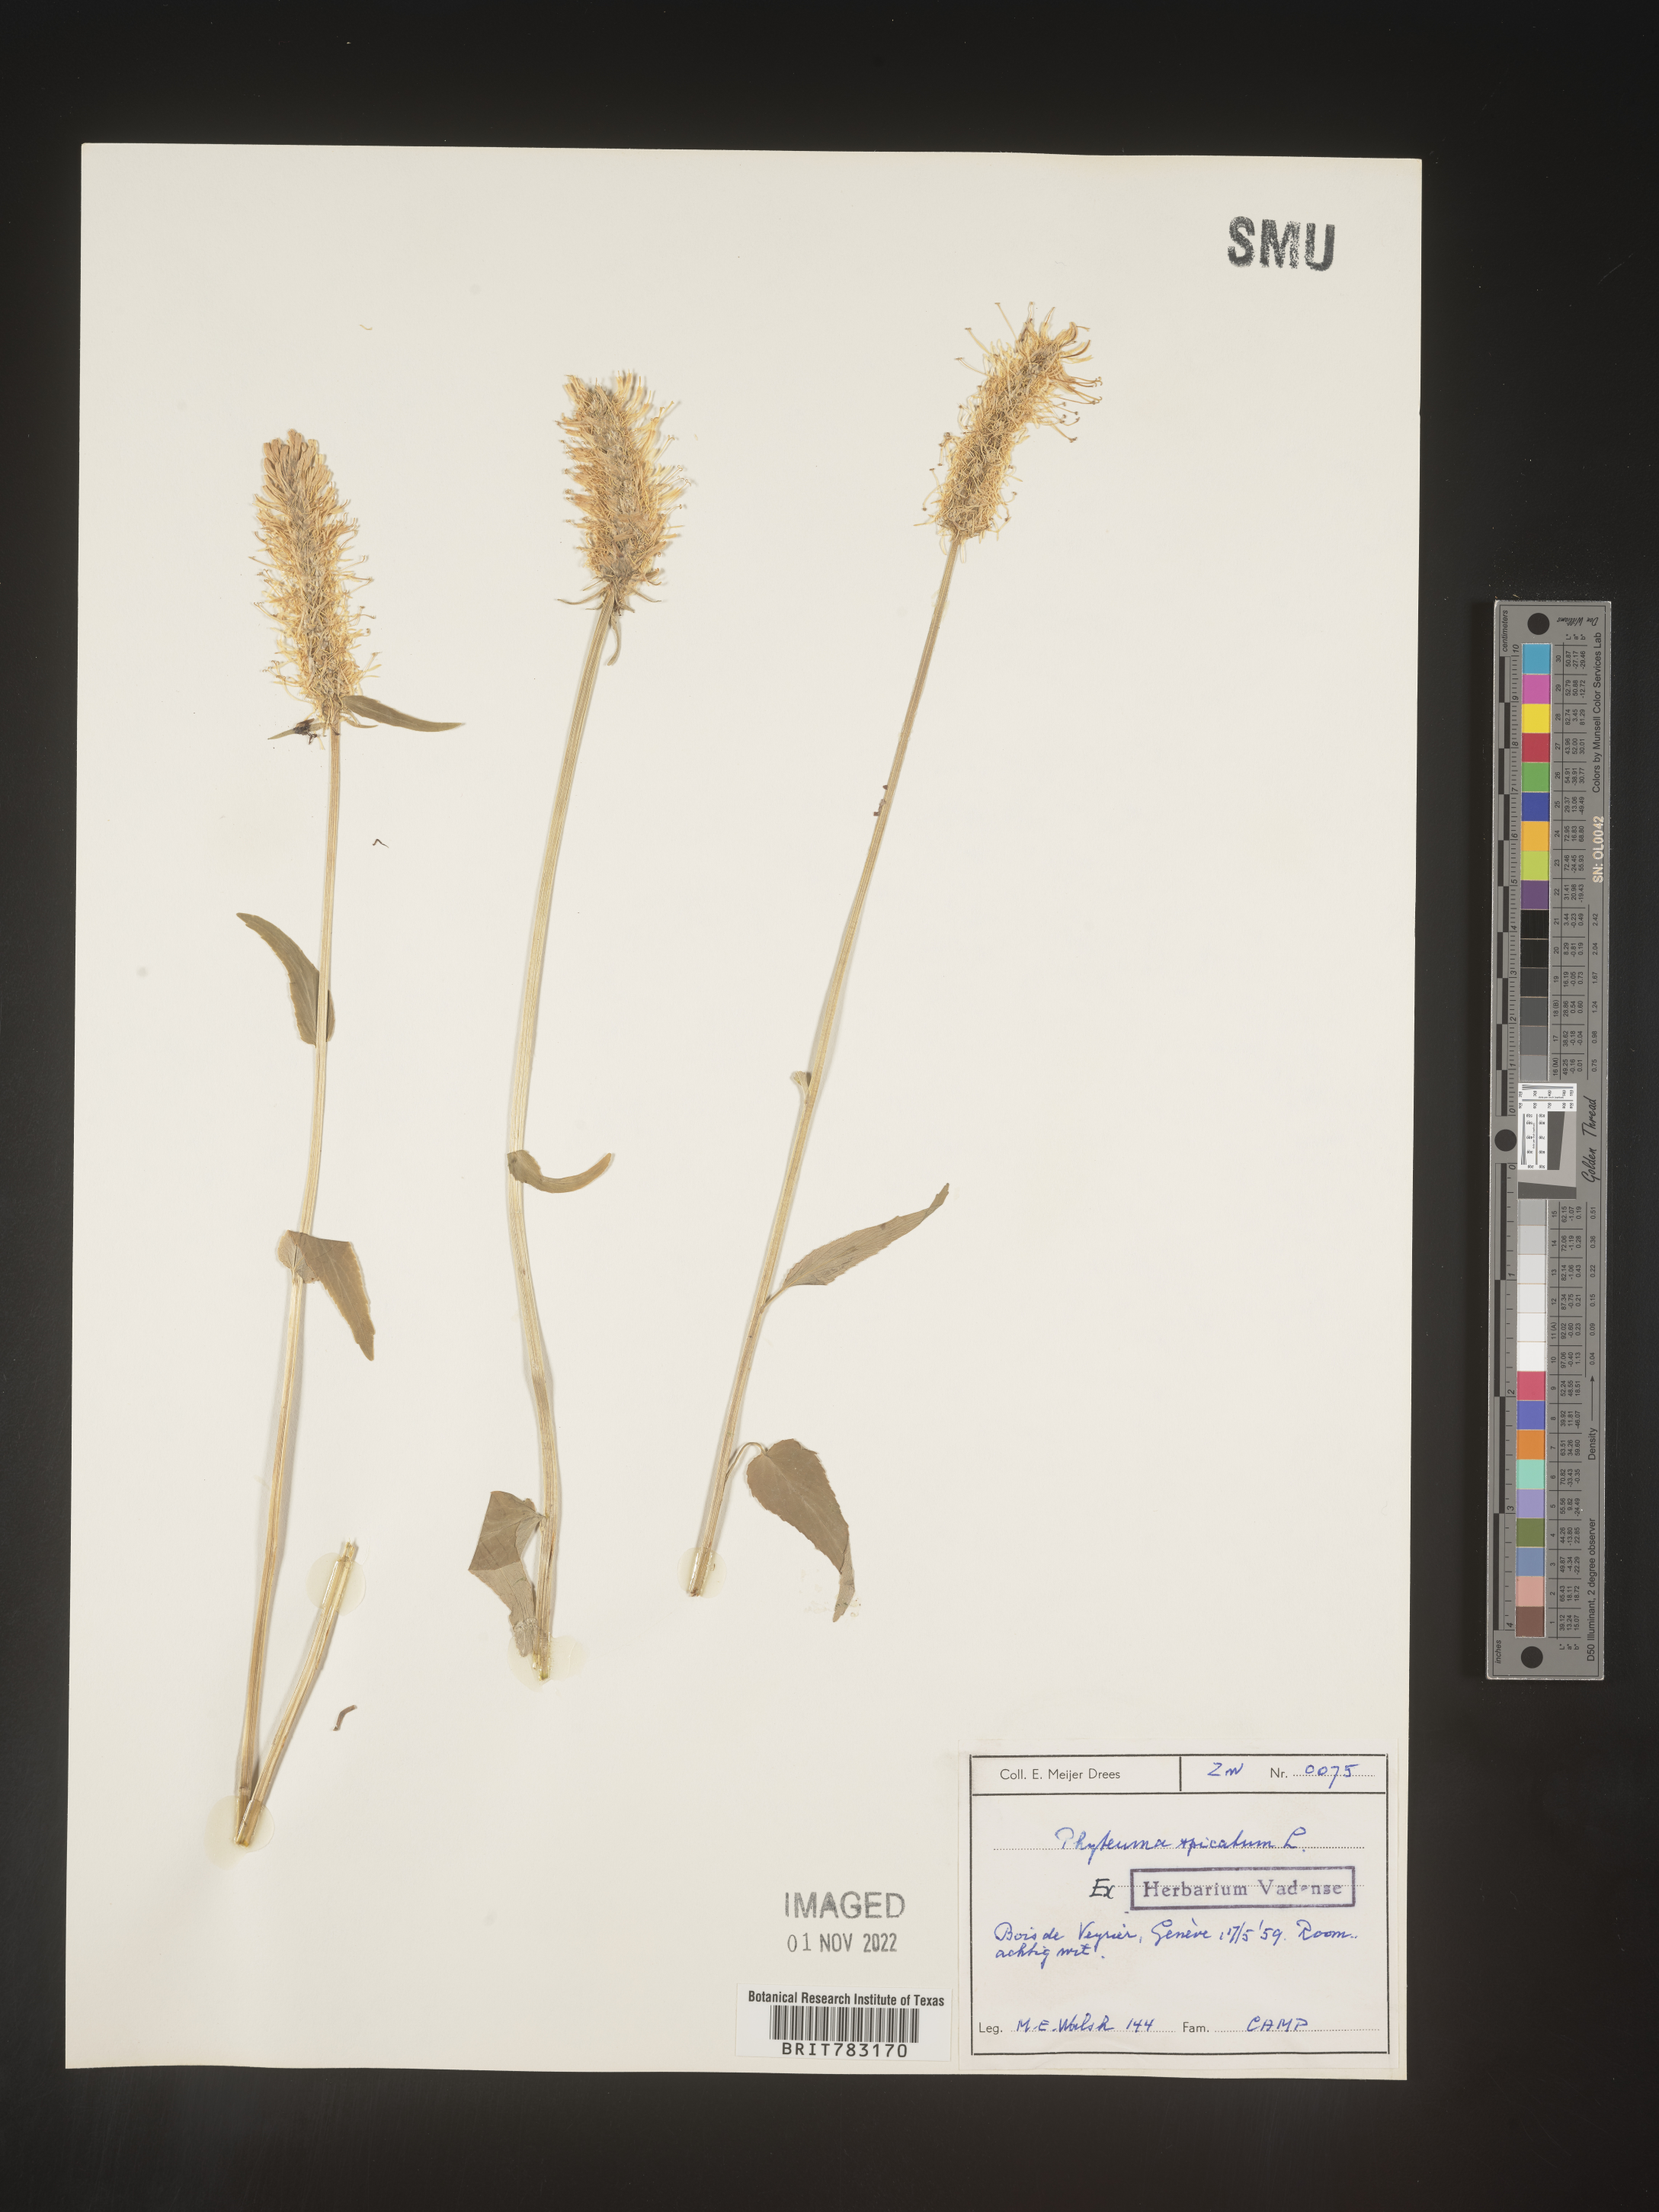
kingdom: Plantae
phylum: Tracheophyta
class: Magnoliopsida
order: Asterales
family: Campanulaceae
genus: Phyteuma
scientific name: Phyteuma
